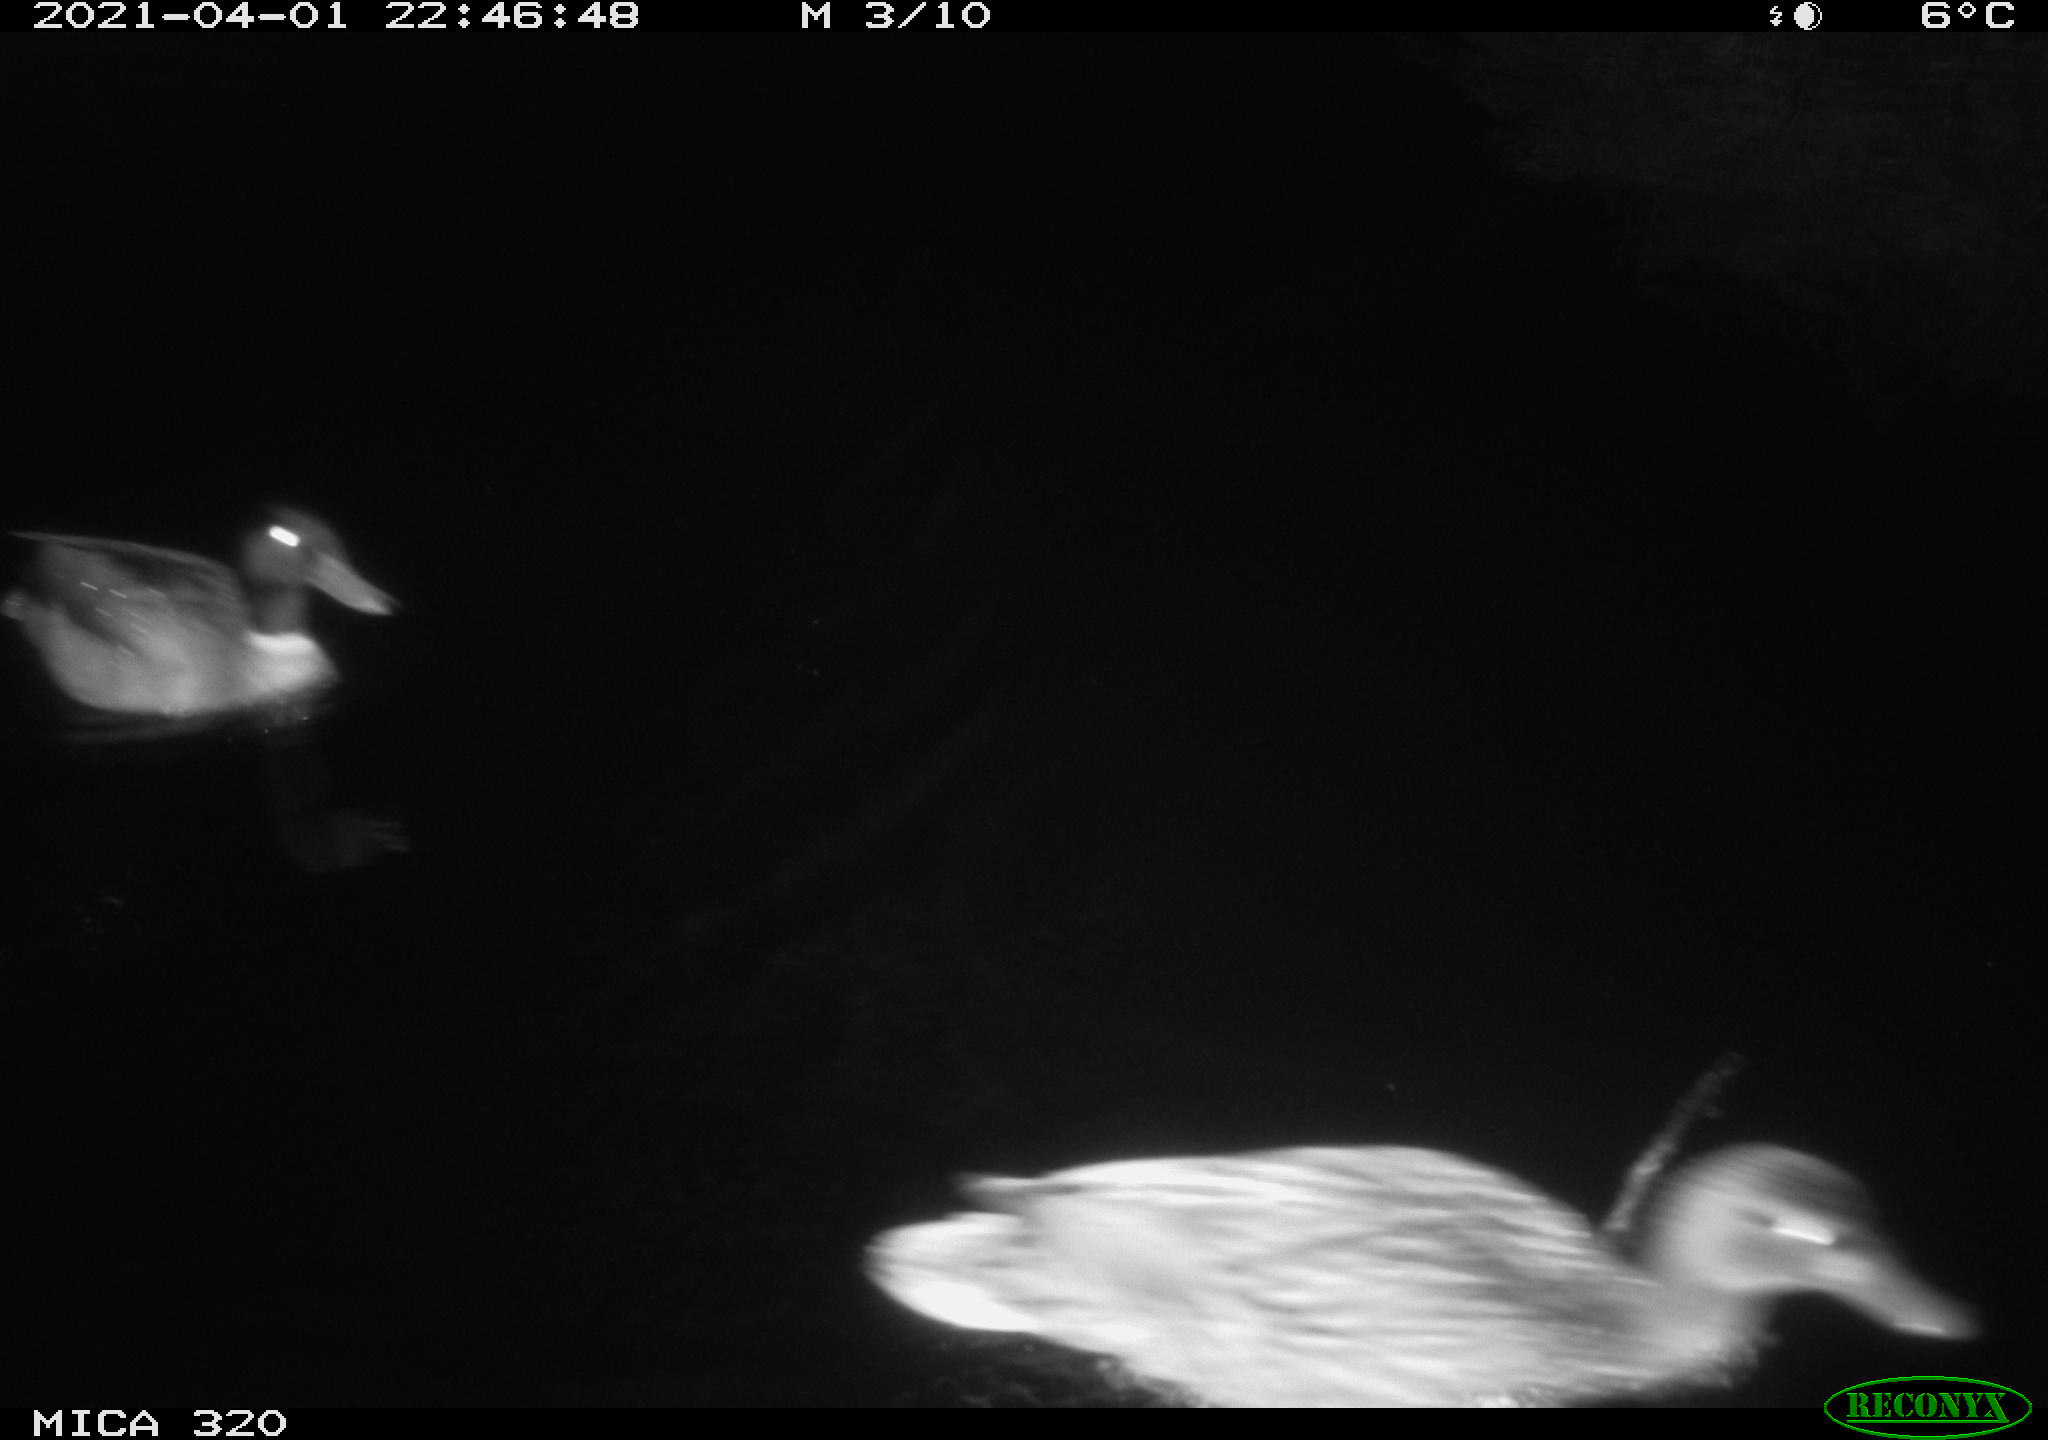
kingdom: Animalia
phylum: Chordata
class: Aves
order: Anseriformes
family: Anatidae
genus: Anas
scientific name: Anas platyrhynchos
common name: Mallard
